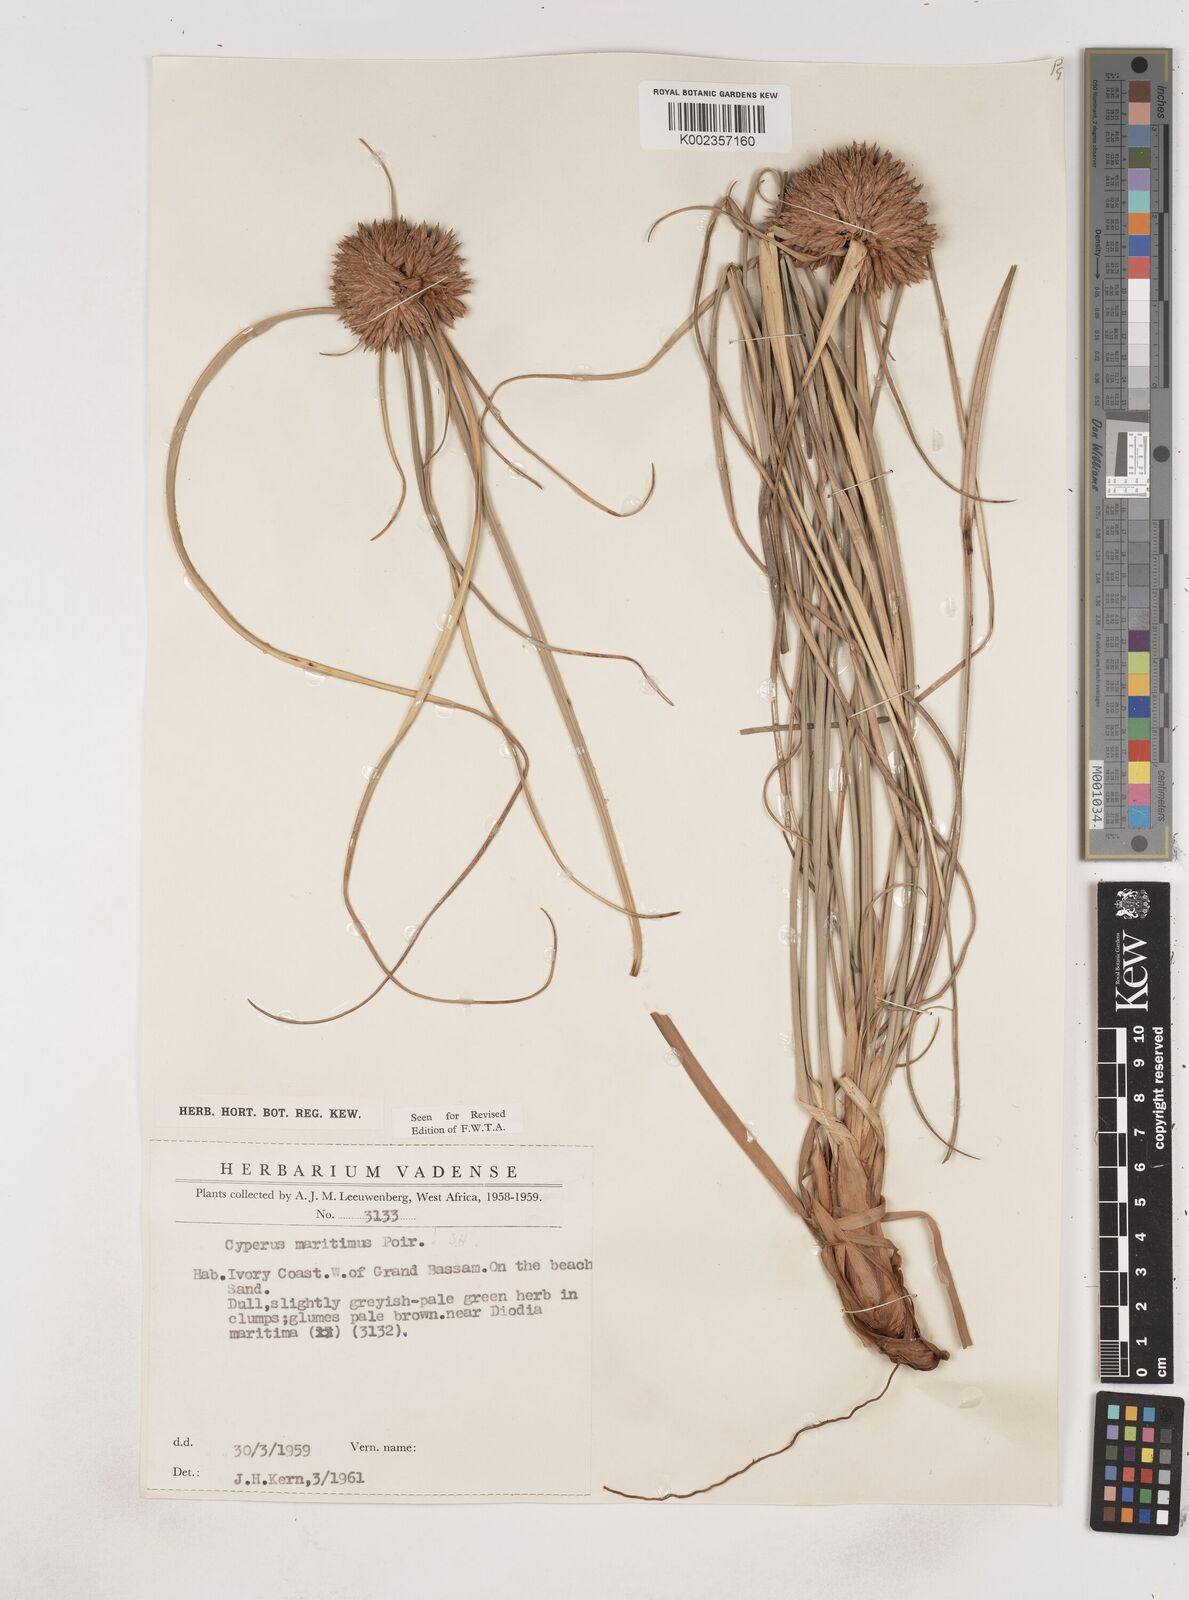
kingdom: Plantae
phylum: Tracheophyta
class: Liliopsida
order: Poales
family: Cyperaceae
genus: Cyperus
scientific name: Cyperus crassipes
